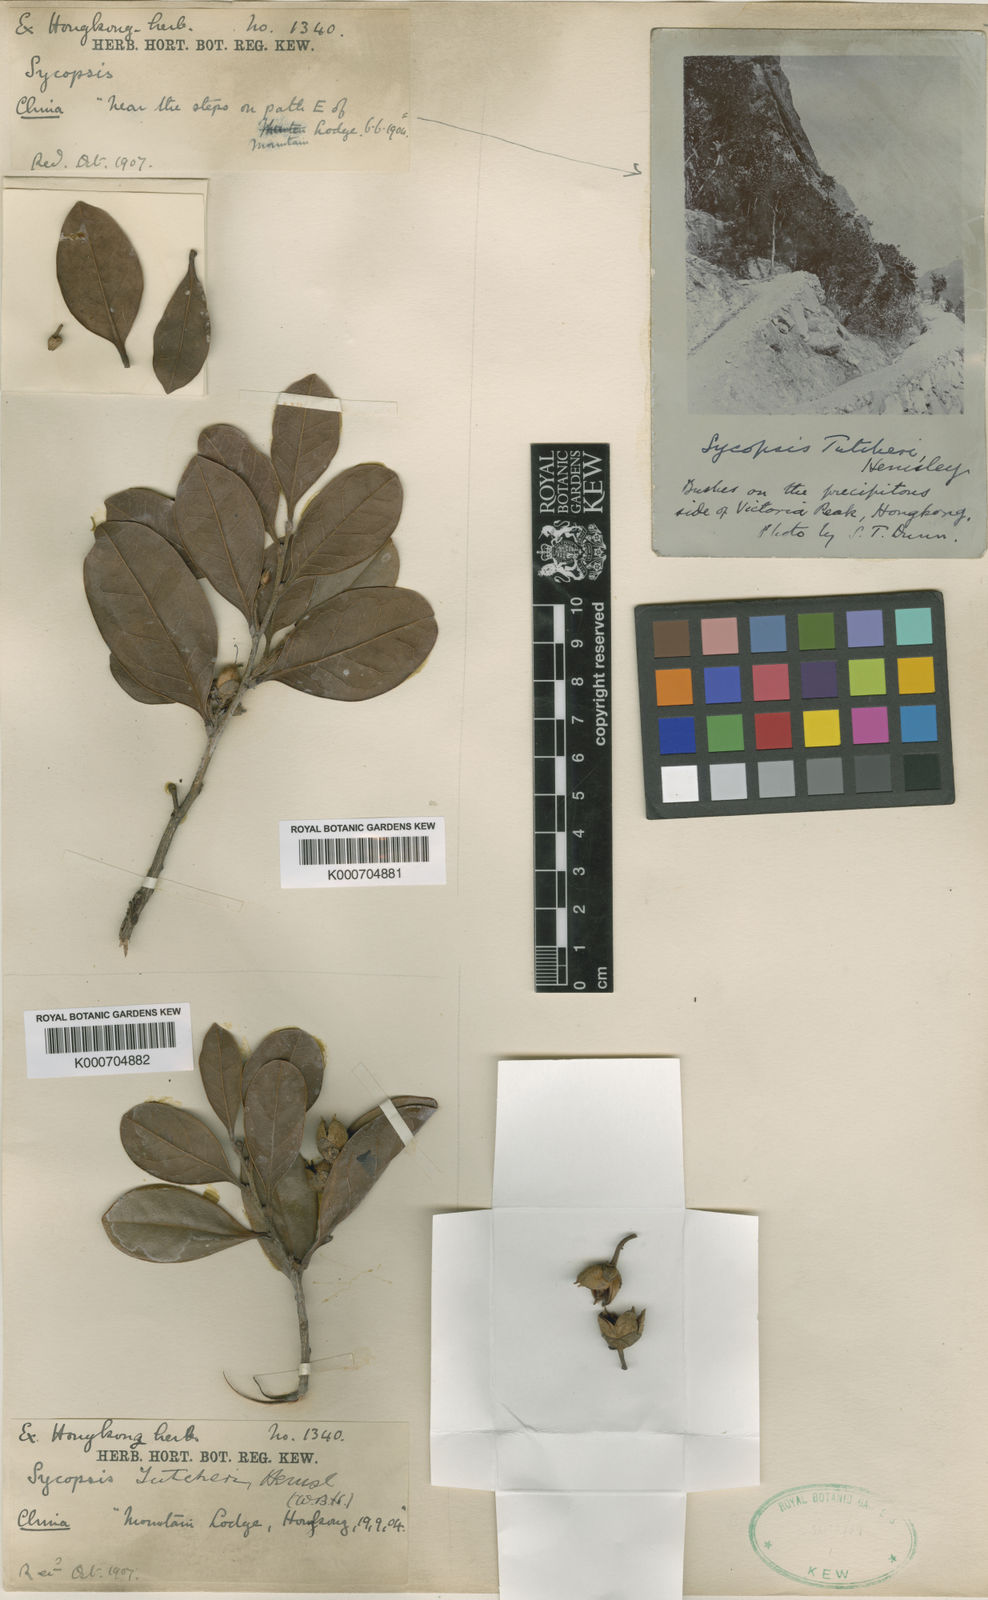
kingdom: Plantae
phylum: Tracheophyta
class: Magnoliopsida
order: Saxifragales
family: Hamamelidaceae
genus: Distyliopsis
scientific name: Distyliopsis tutcheri
